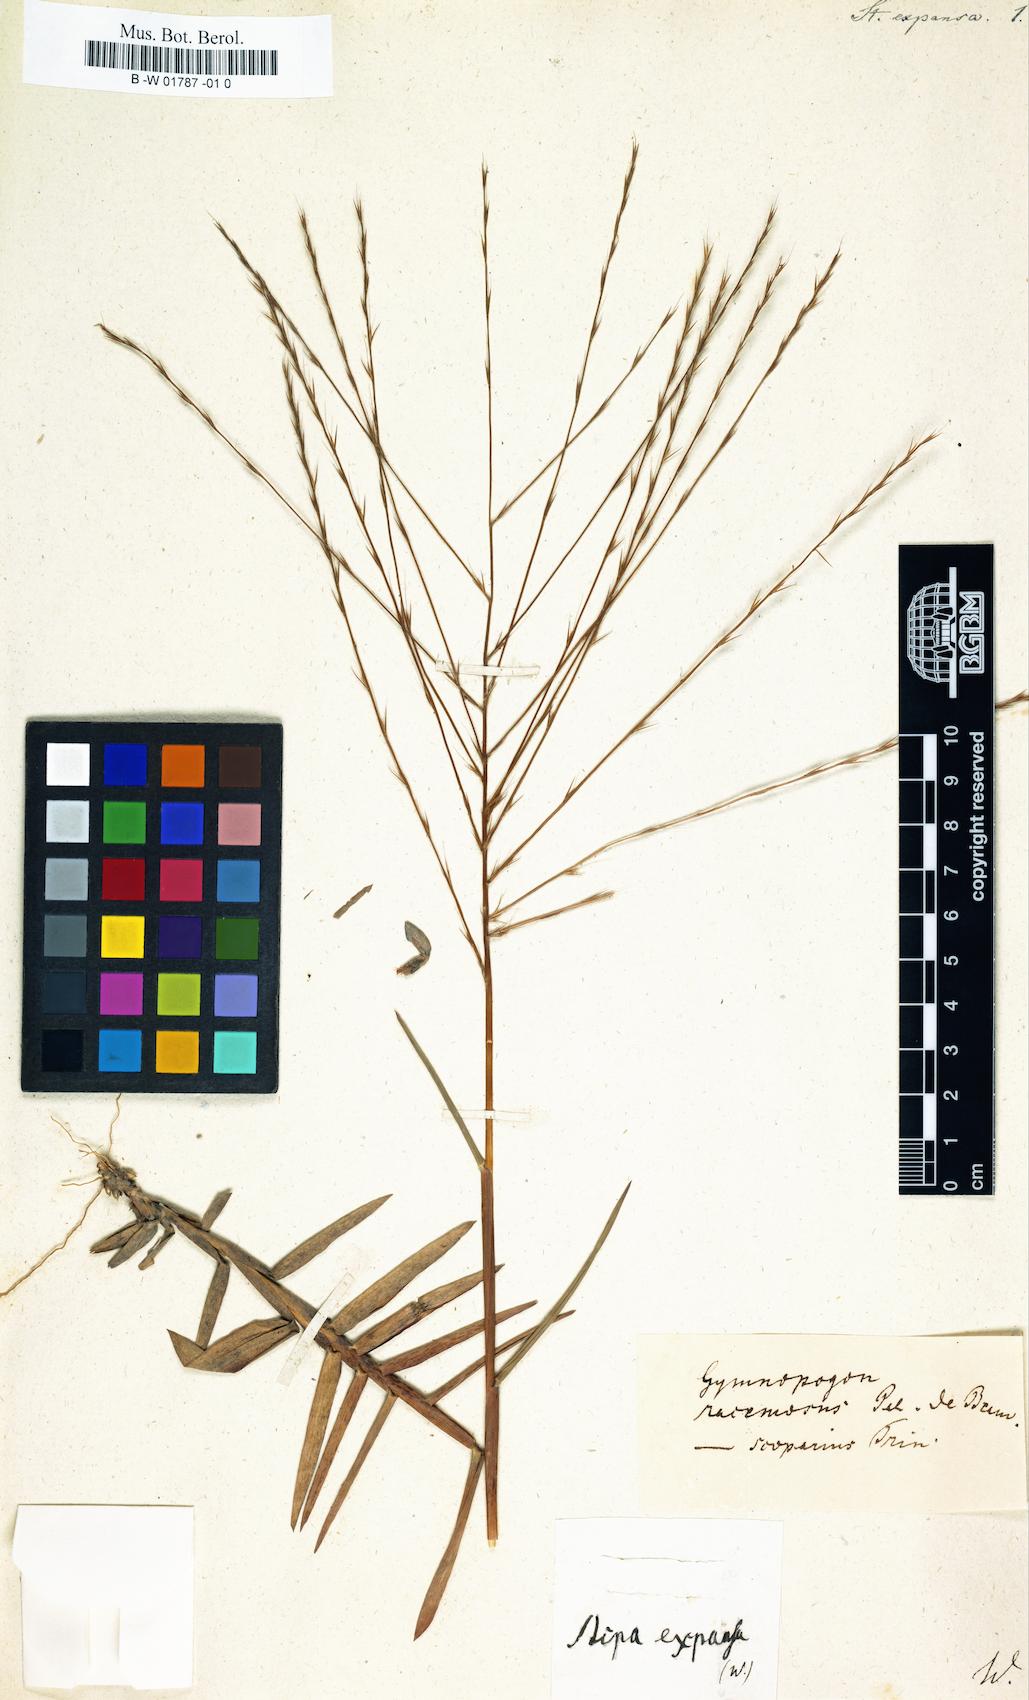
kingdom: Plantae
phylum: Tracheophyta
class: Liliopsida
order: Poales
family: Poaceae
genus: Muhlenbergia
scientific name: Muhlenbergia expansa
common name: Savannah hairgrass
